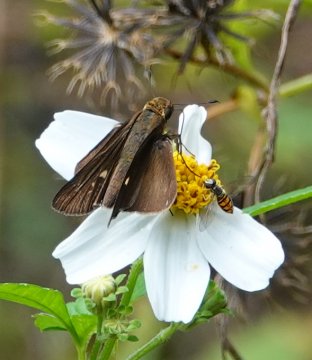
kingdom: Animalia
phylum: Arthropoda
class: Insecta
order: Lepidoptera
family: Hesperiidae
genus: Panoquina
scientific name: Panoquina ocola
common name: Ocola Skipper
